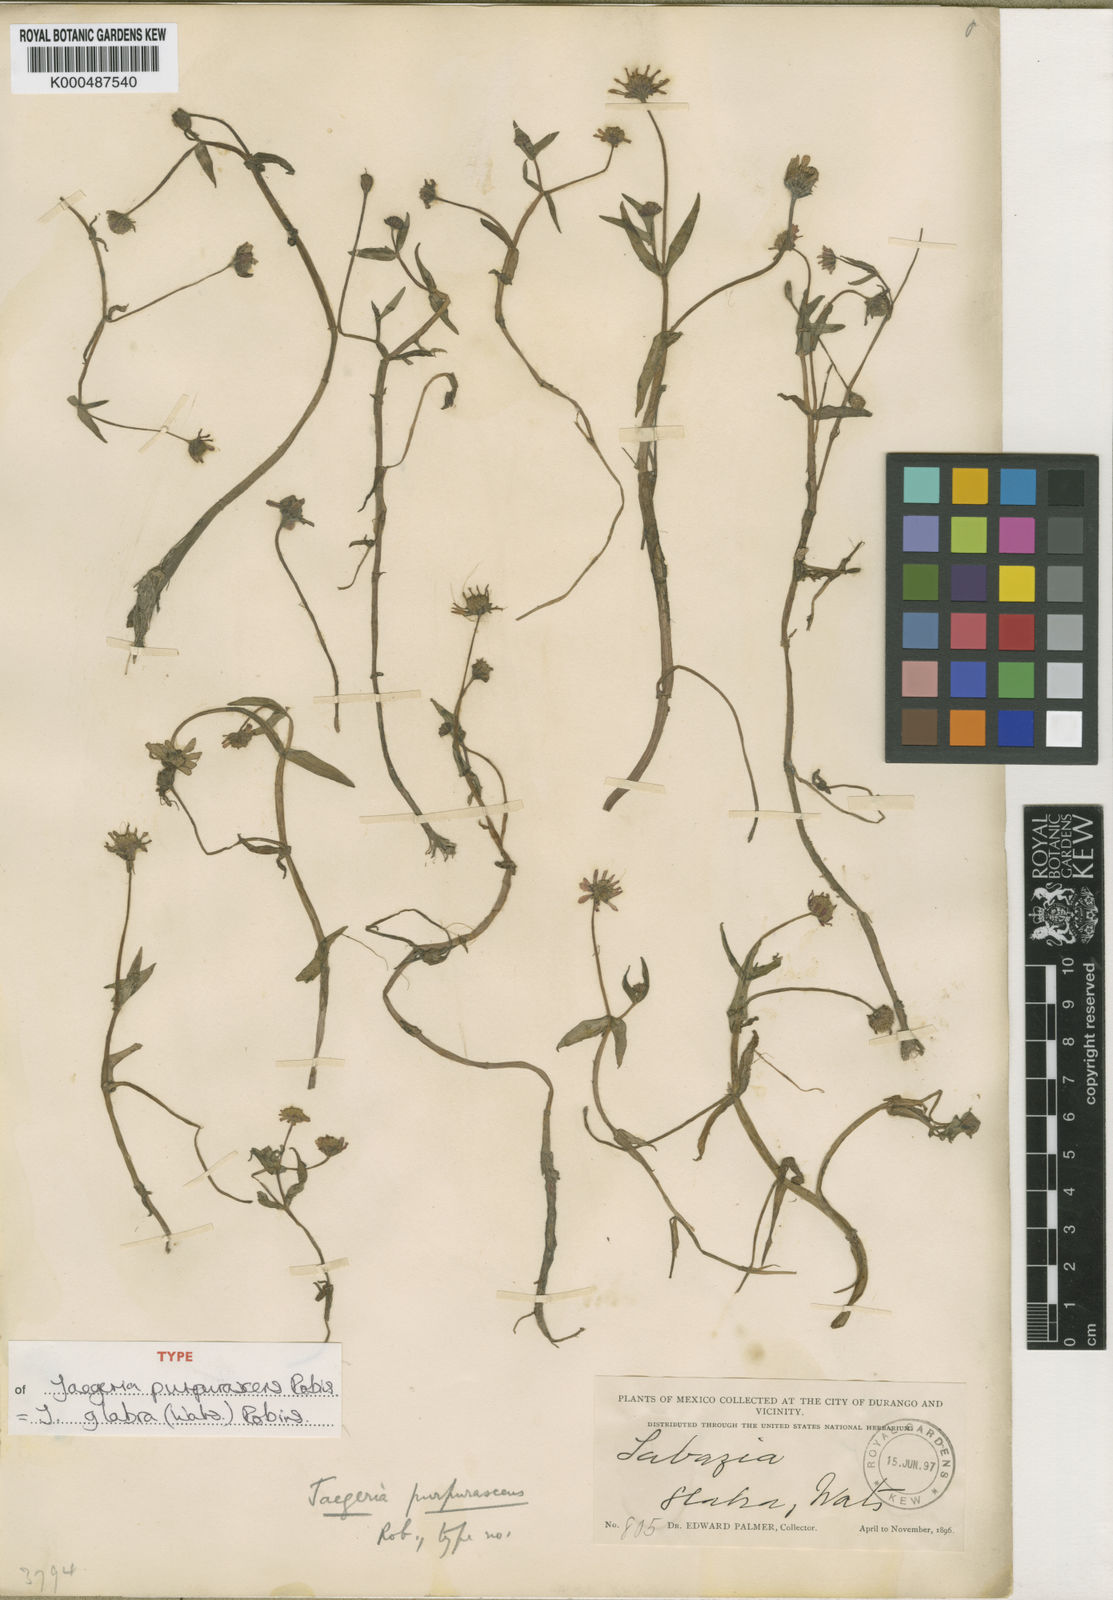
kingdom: Plantae
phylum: Tracheophyta
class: Magnoliopsida
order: Asterales
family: Asteraceae
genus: Jaegeria
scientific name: Jaegeria glabra
